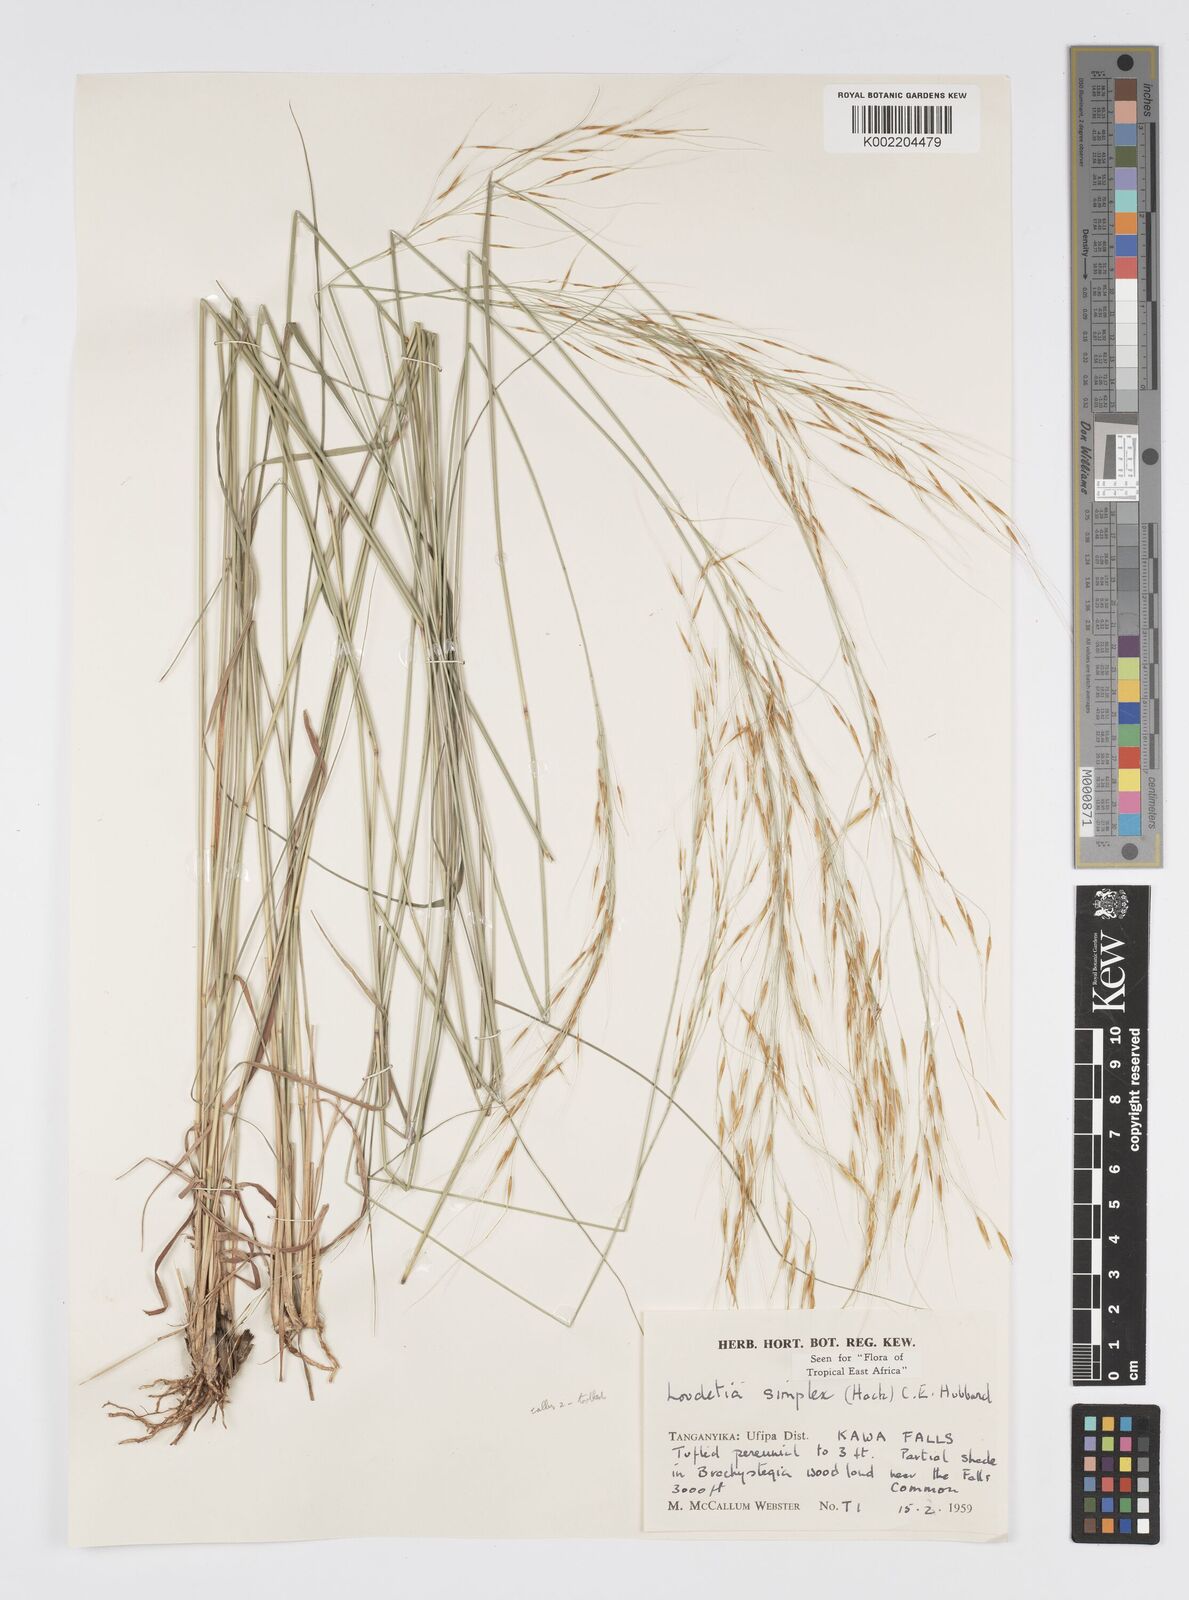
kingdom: Plantae
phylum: Tracheophyta
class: Liliopsida
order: Poales
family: Poaceae
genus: Loudetia
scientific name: Loudetia simplex
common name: Common russet grass
